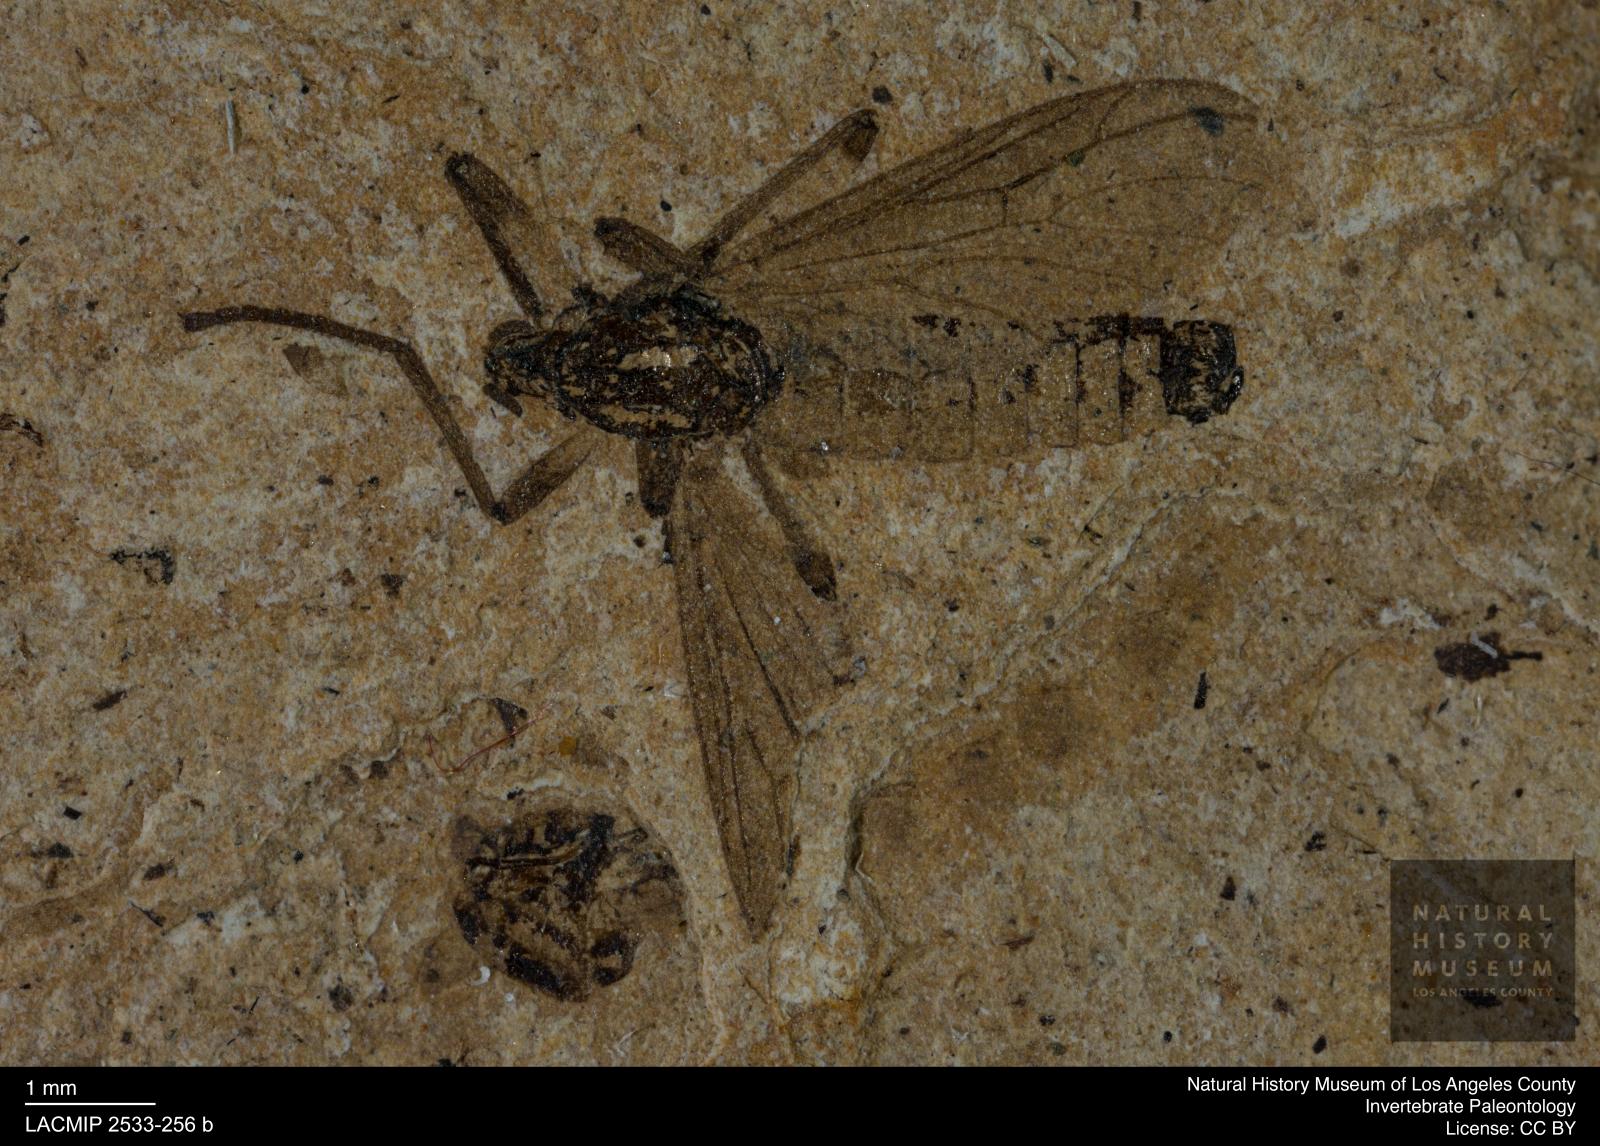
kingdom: Animalia
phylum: Arthropoda
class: Insecta
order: Diptera
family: Bibionidae
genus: Plecia
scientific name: Plecia
